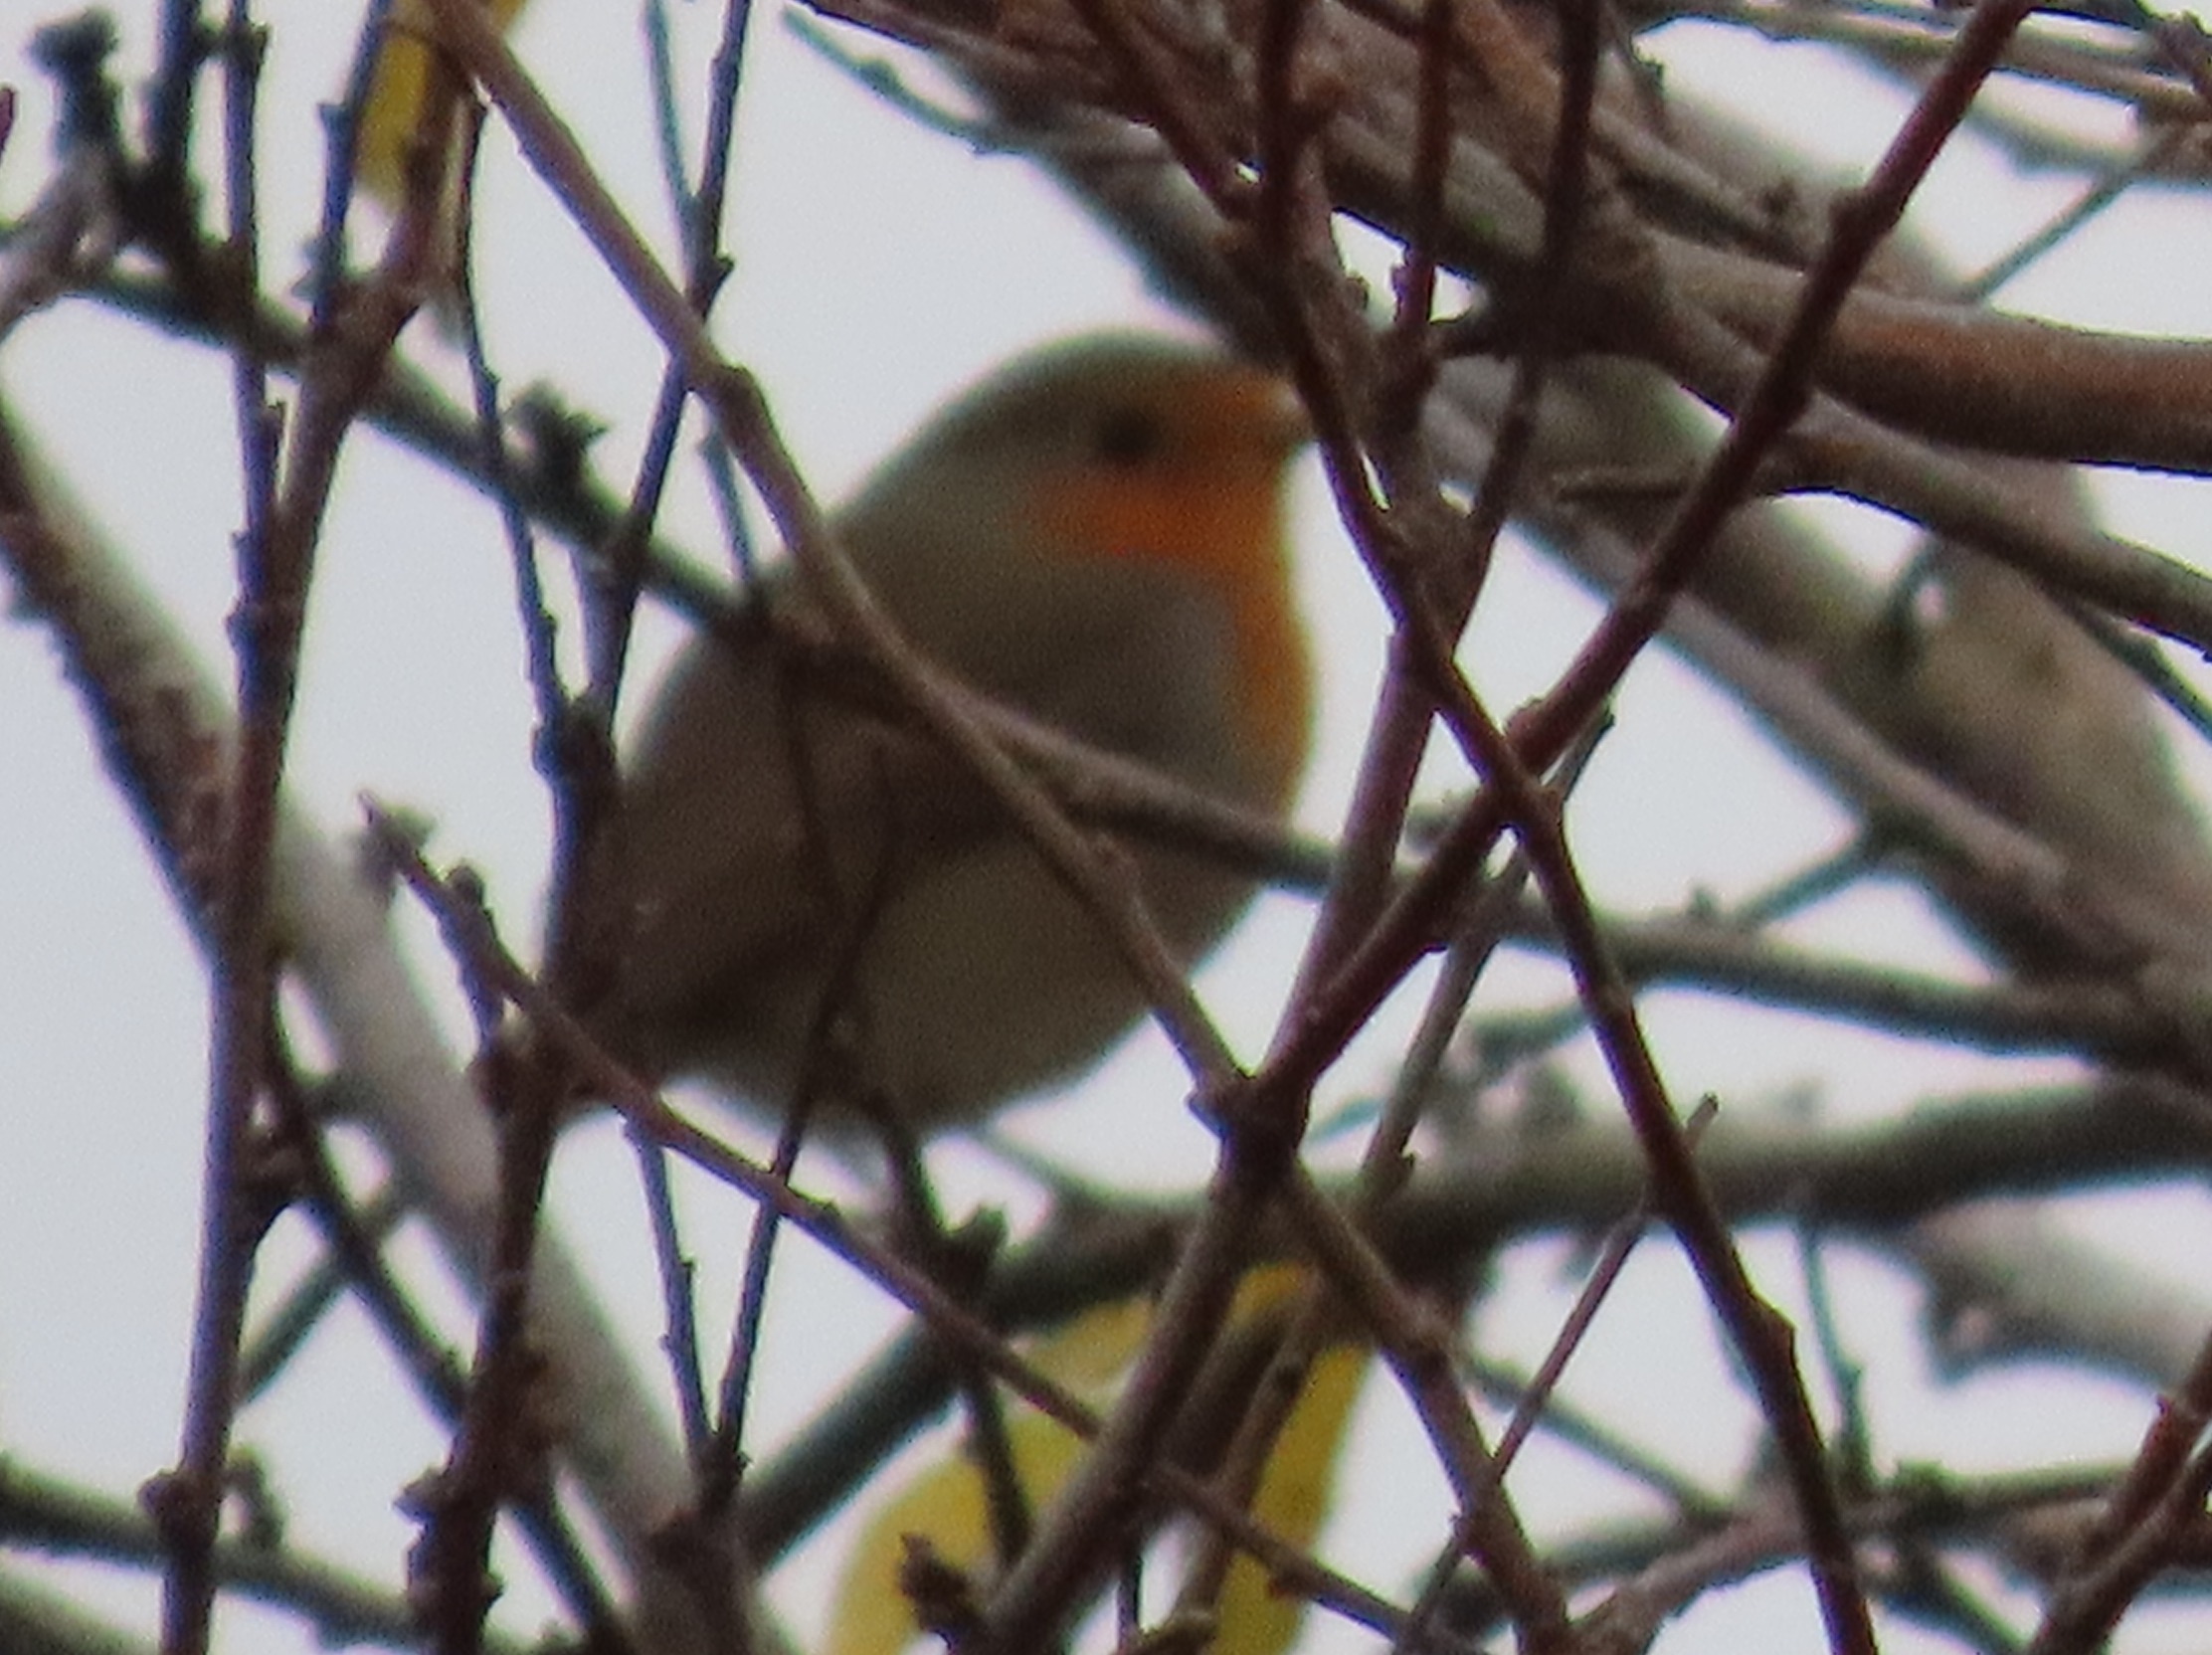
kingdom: Animalia
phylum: Chordata
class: Aves
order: Passeriformes
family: Muscicapidae
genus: Erithacus
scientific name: Erithacus rubecula
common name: Rødhals/rødkælk
